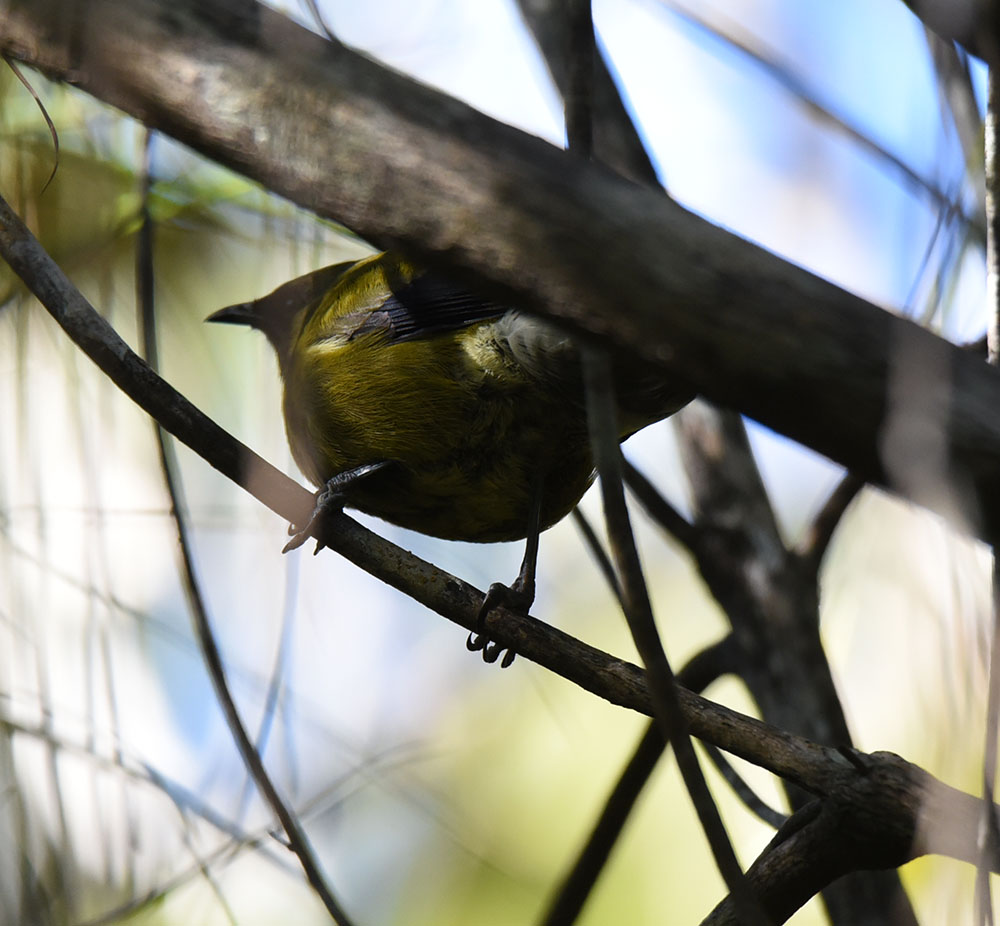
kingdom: Animalia
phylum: Chordata
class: Aves
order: Passeriformes
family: Meliphagidae
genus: Anthornis
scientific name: Anthornis melanura
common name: New zealand bellbird
